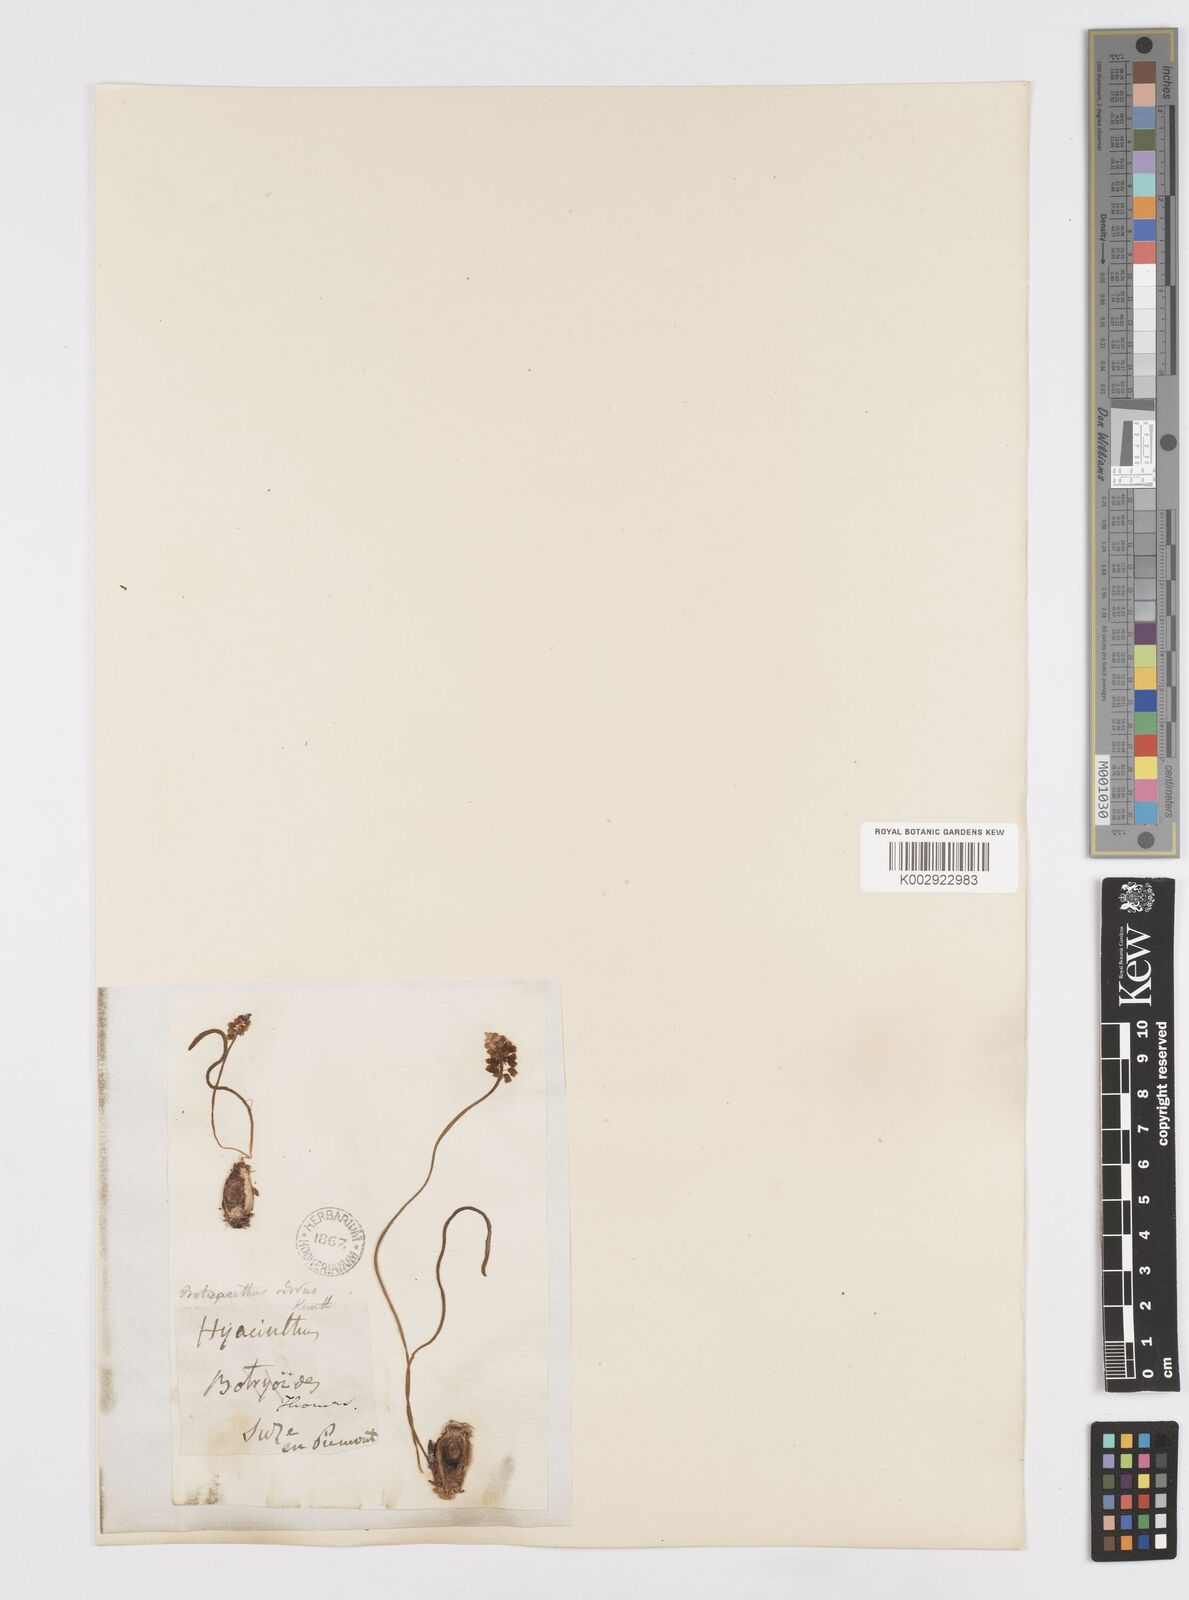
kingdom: Plantae
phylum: Tracheophyta
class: Liliopsida
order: Asparagales
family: Asparagaceae
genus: Muscarimia
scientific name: Muscarimia muscari
